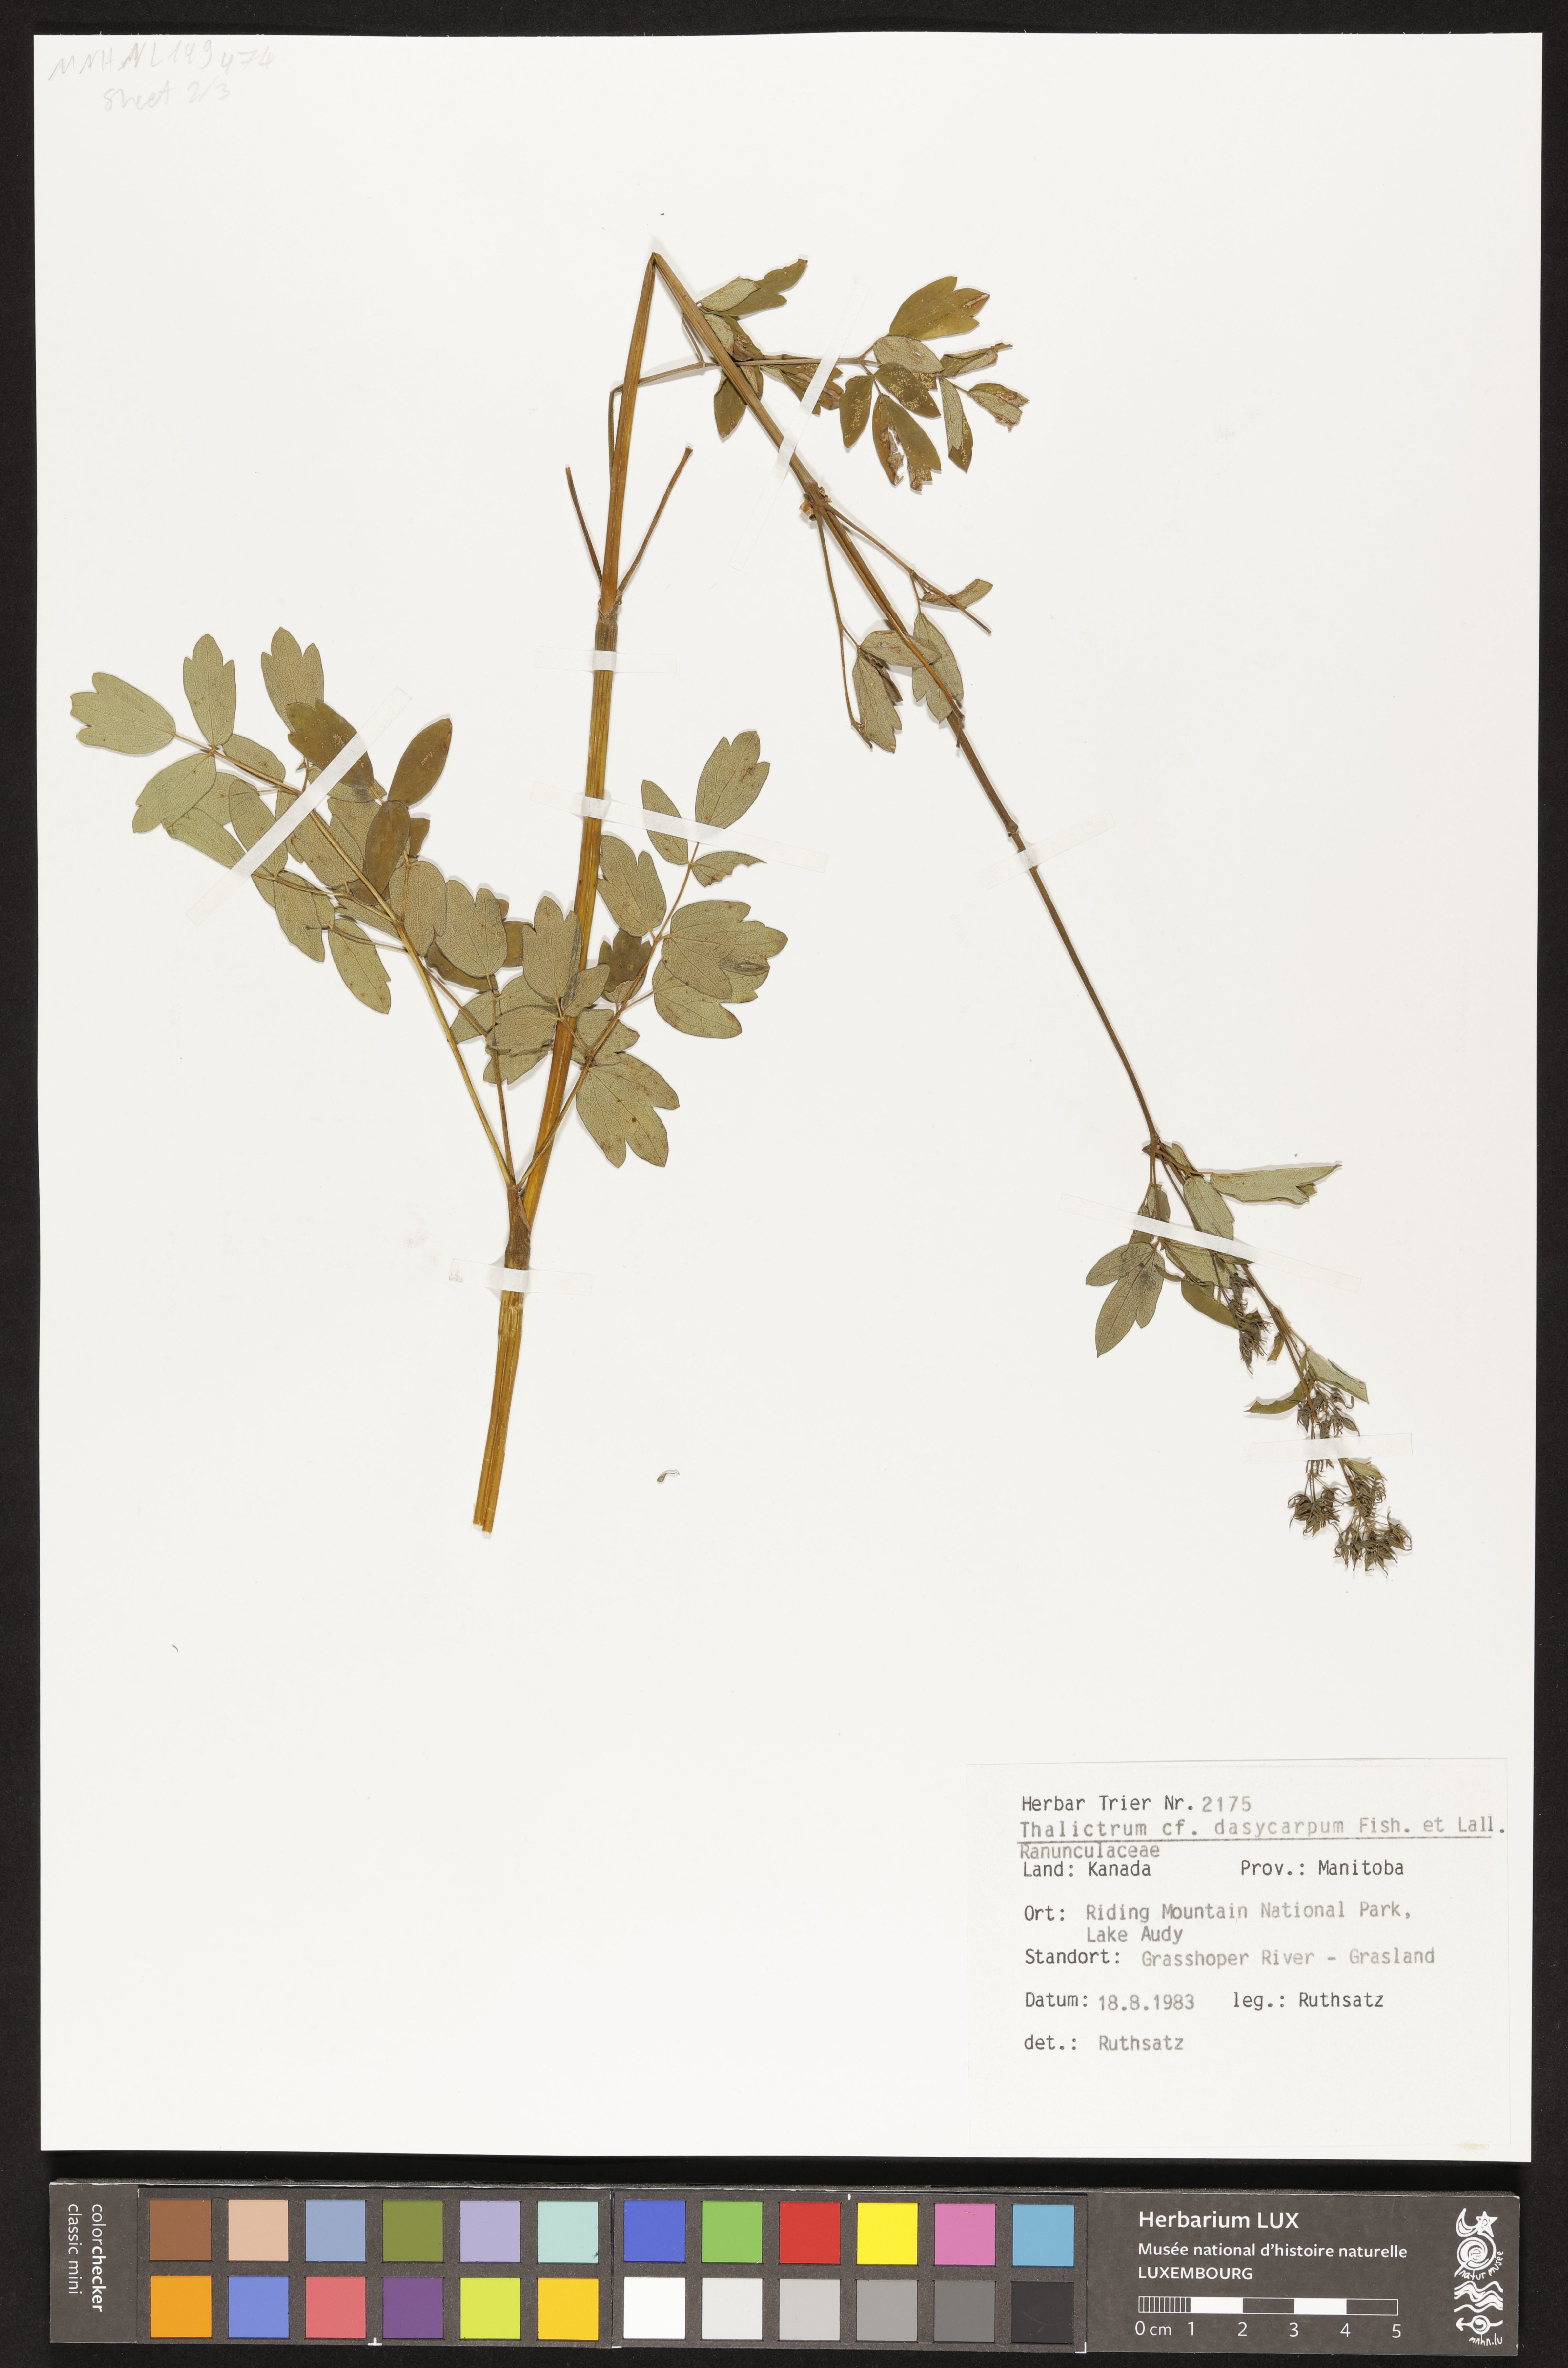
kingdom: Plantae
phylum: Tracheophyta
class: Magnoliopsida
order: Ranunculales
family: Ranunculaceae
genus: Thalictrum
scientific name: Thalictrum dasycarpum
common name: Purple meadow-rue
